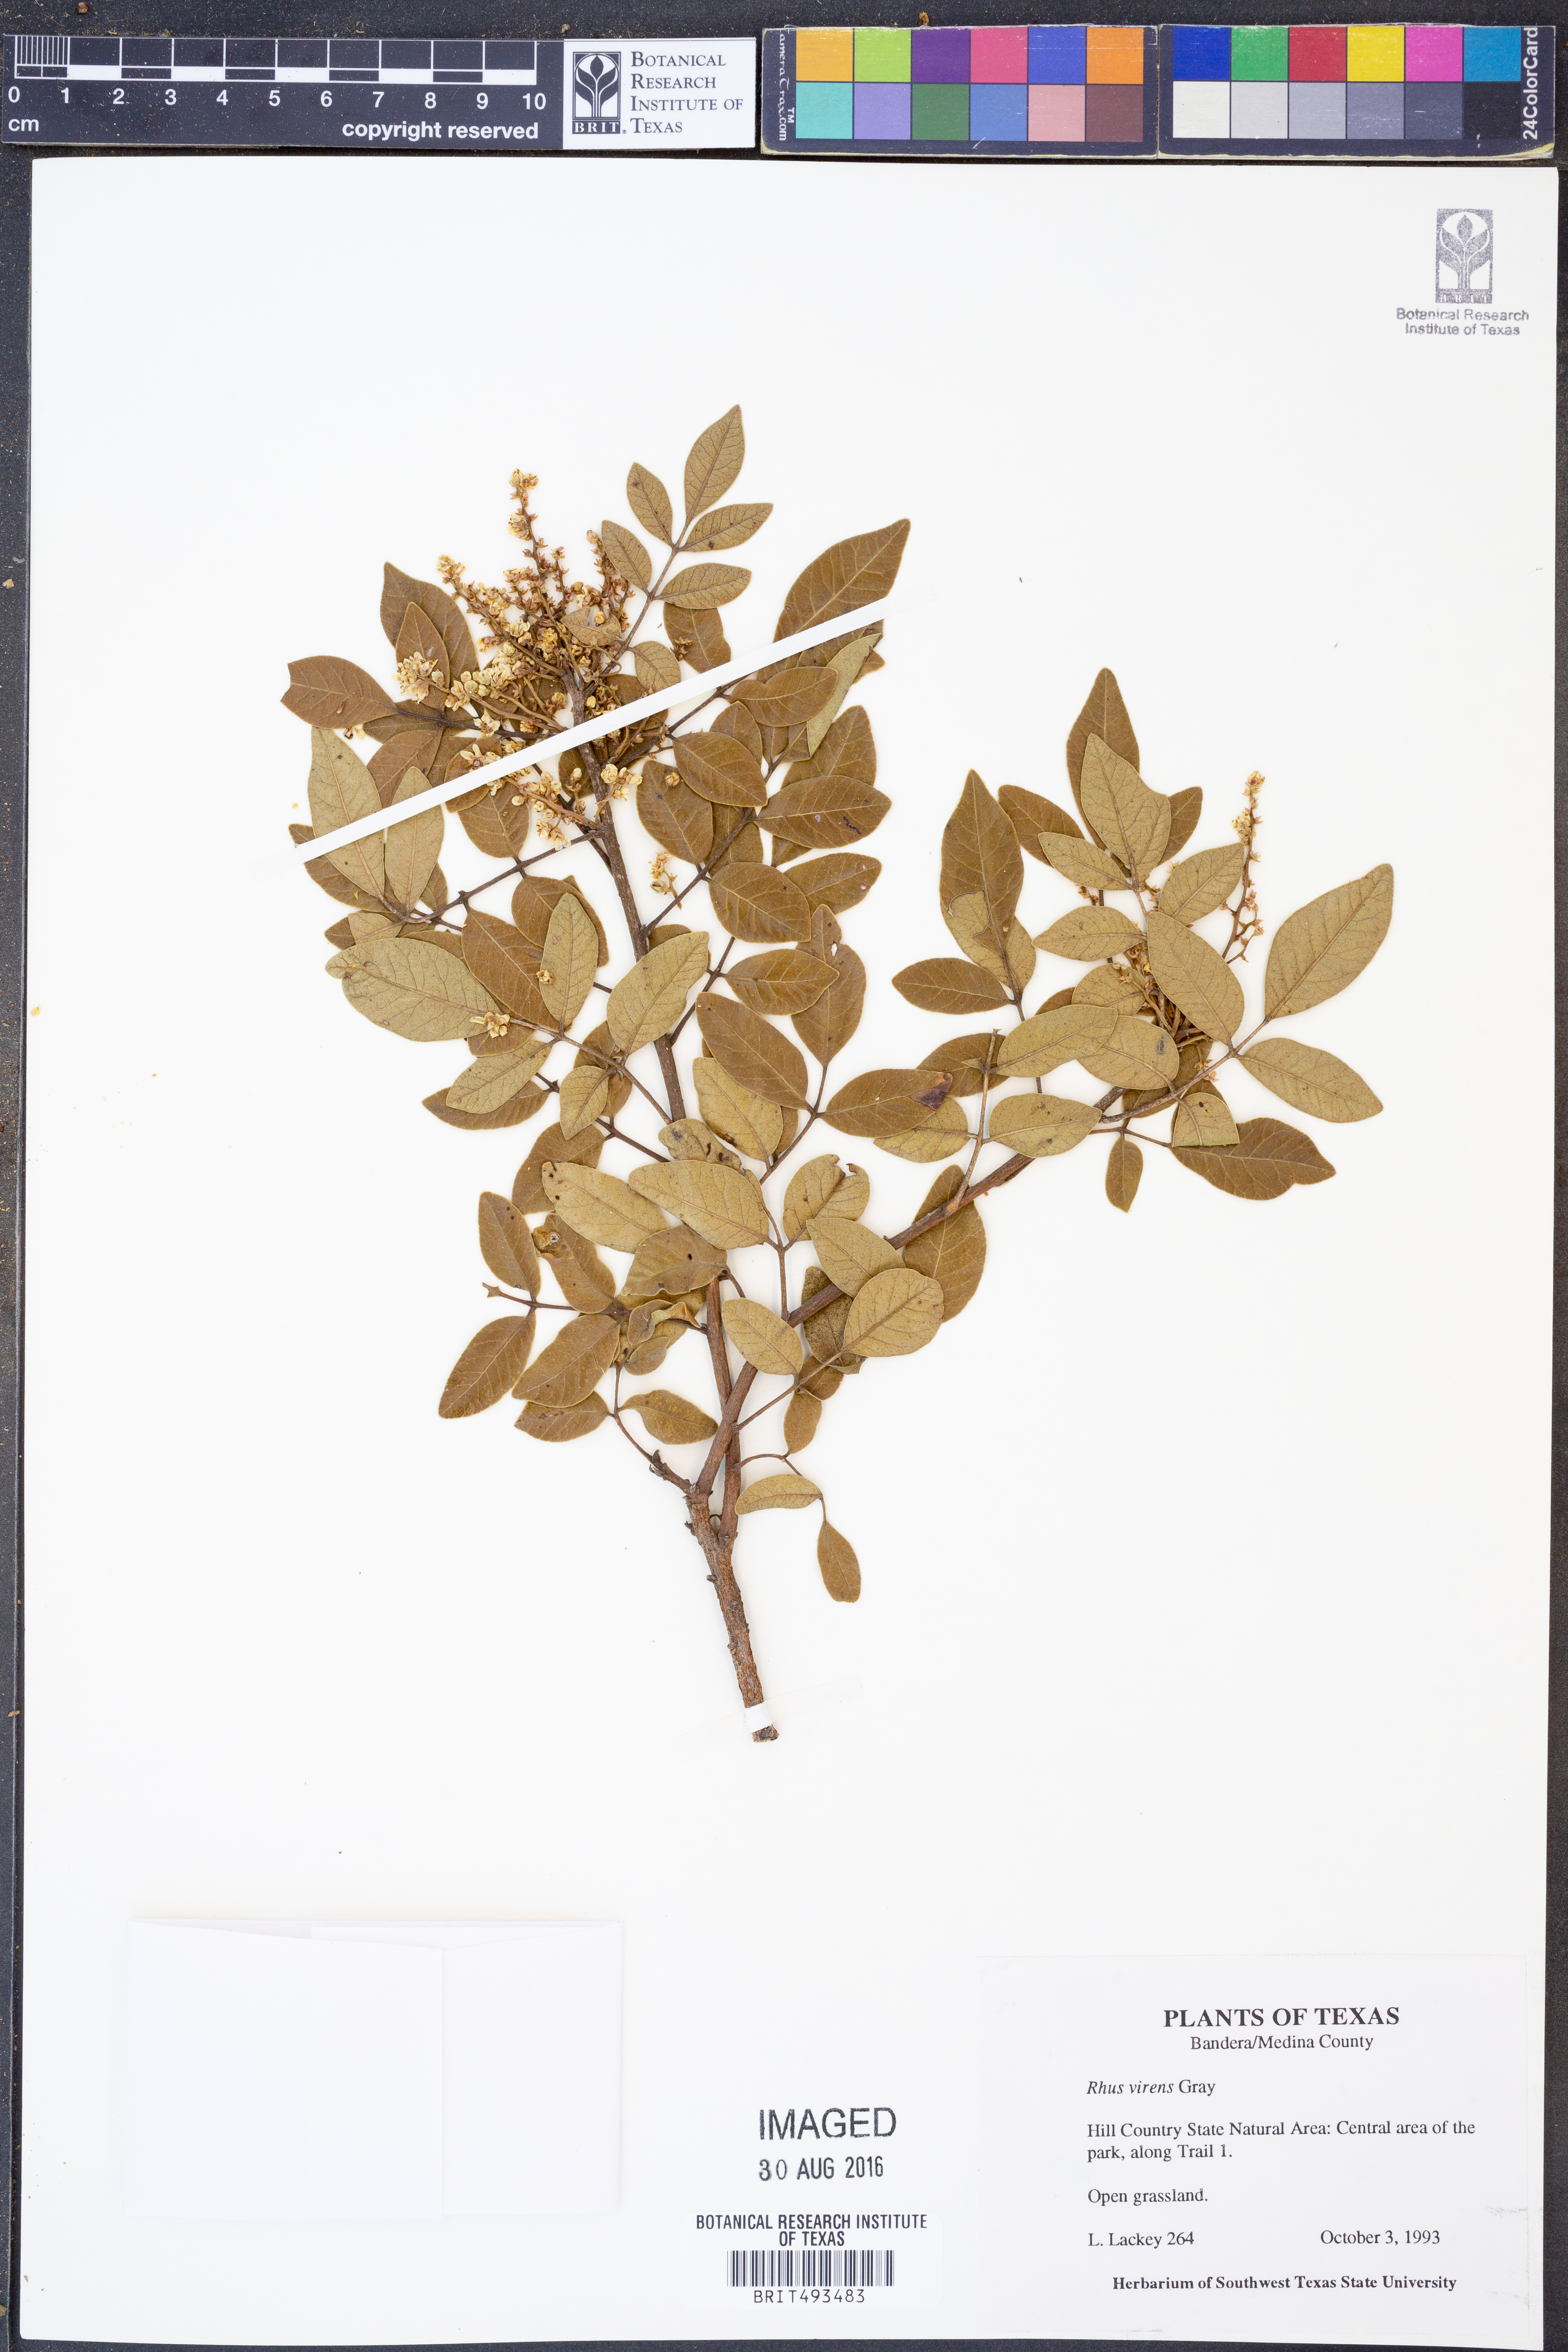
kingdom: Plantae
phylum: Tracheophyta
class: Magnoliopsida
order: Sapindales
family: Anacardiaceae
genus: Rhus
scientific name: Rhus virens
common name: Evergreen sumac
